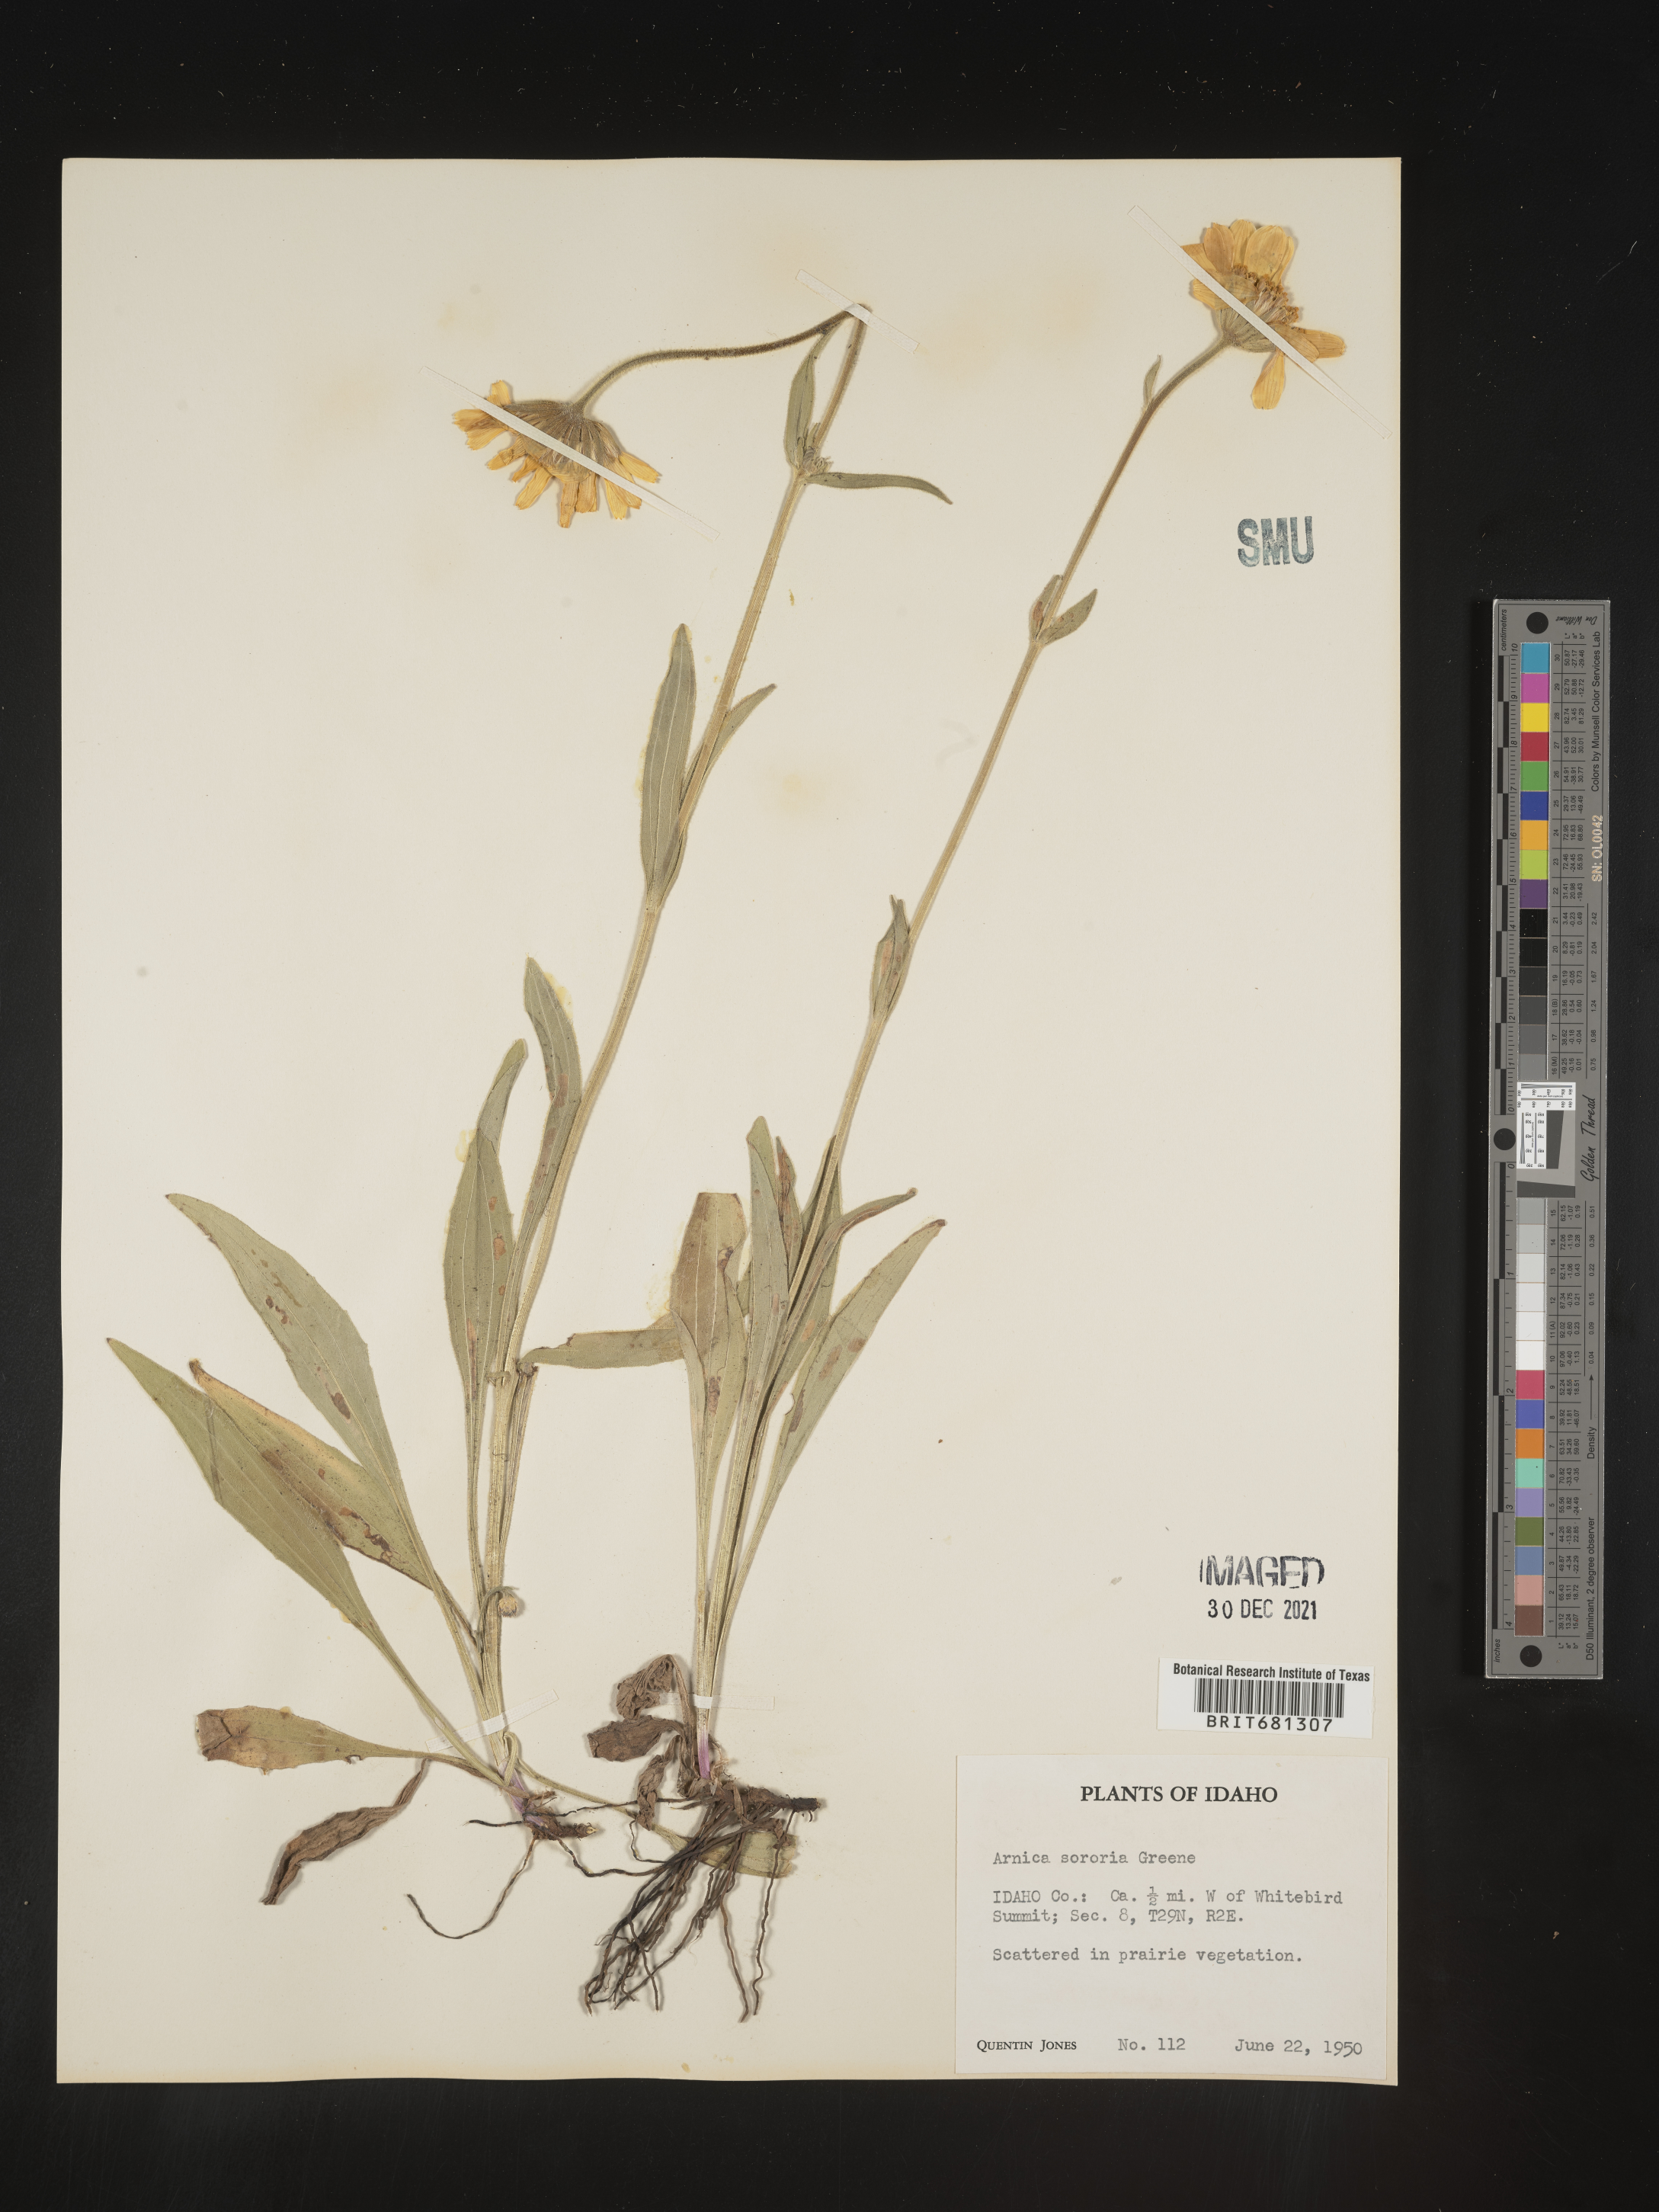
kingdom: Plantae
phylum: Tracheophyta
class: Magnoliopsida
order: Asterales
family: Asteraceae
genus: Arnica
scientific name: Arnica sororia
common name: Twin arnica
